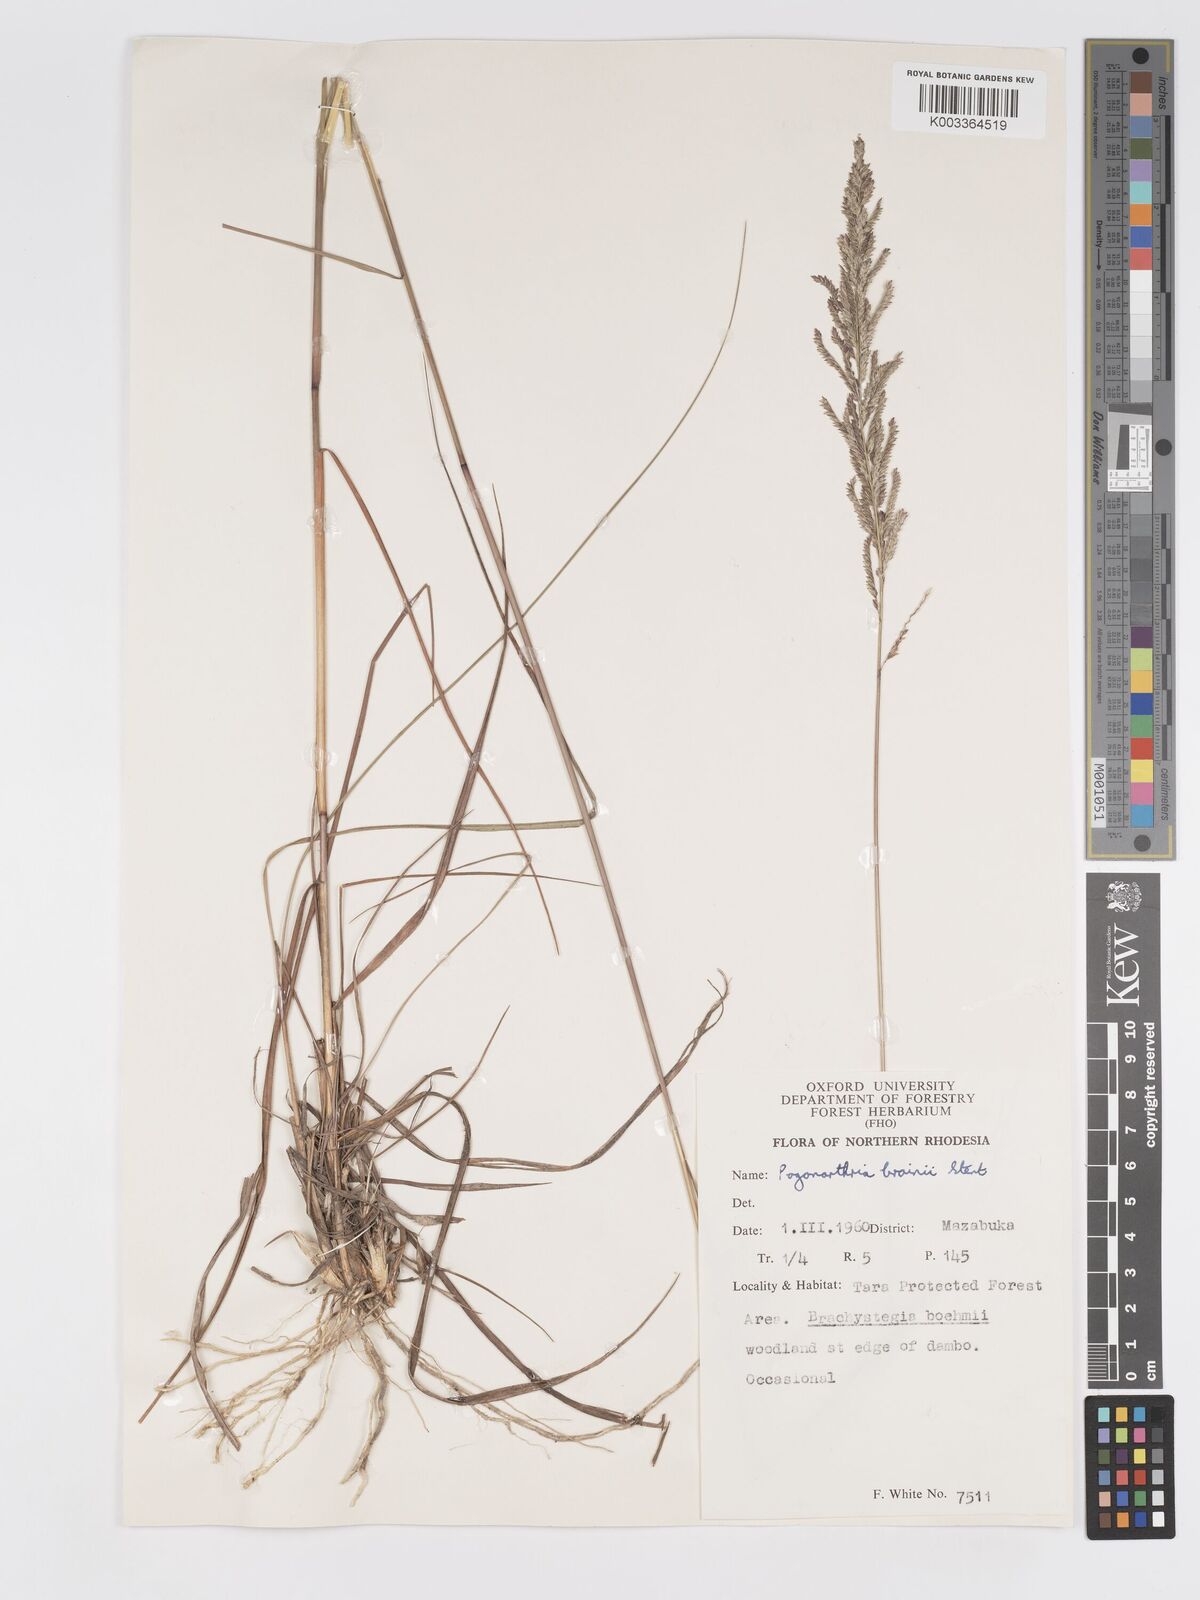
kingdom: Plantae
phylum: Tracheophyta
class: Liliopsida
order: Poales
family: Poaceae
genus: Eragrostis
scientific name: Eragrostis brainii
